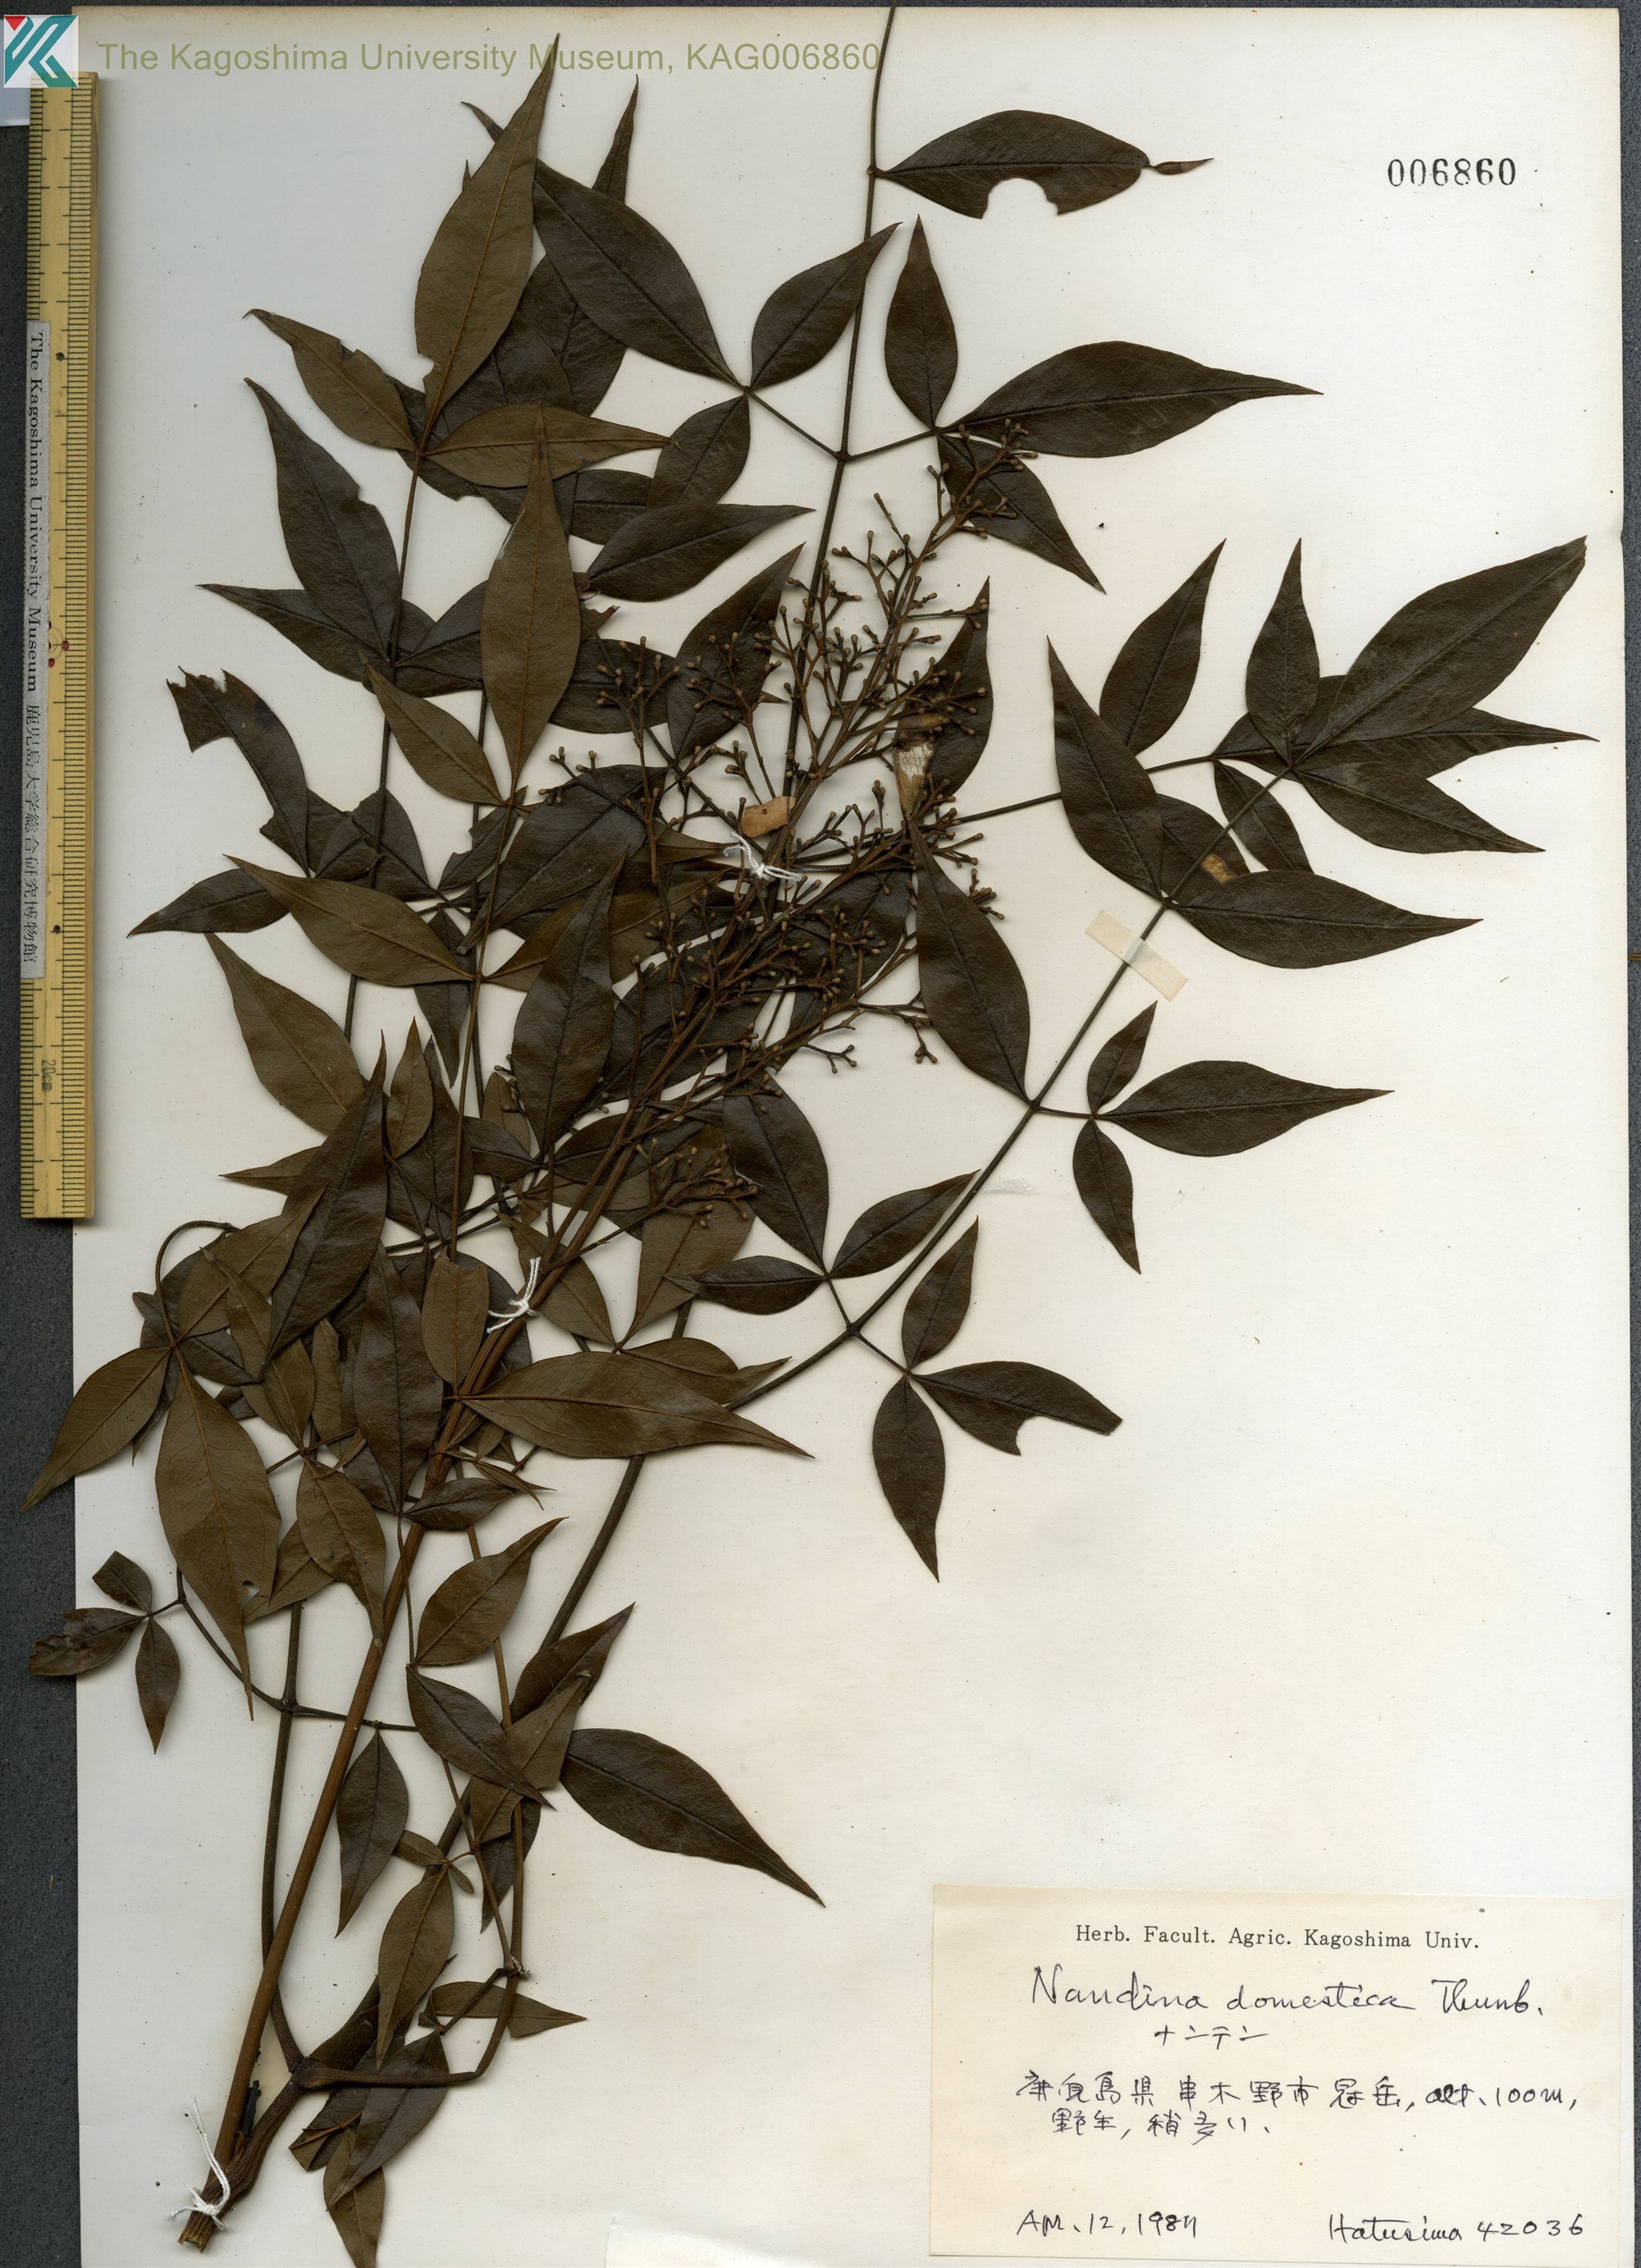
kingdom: Plantae
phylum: Tracheophyta
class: Magnoliopsida
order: Ranunculales
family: Berberidaceae
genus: Nandina
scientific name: Nandina domestica
